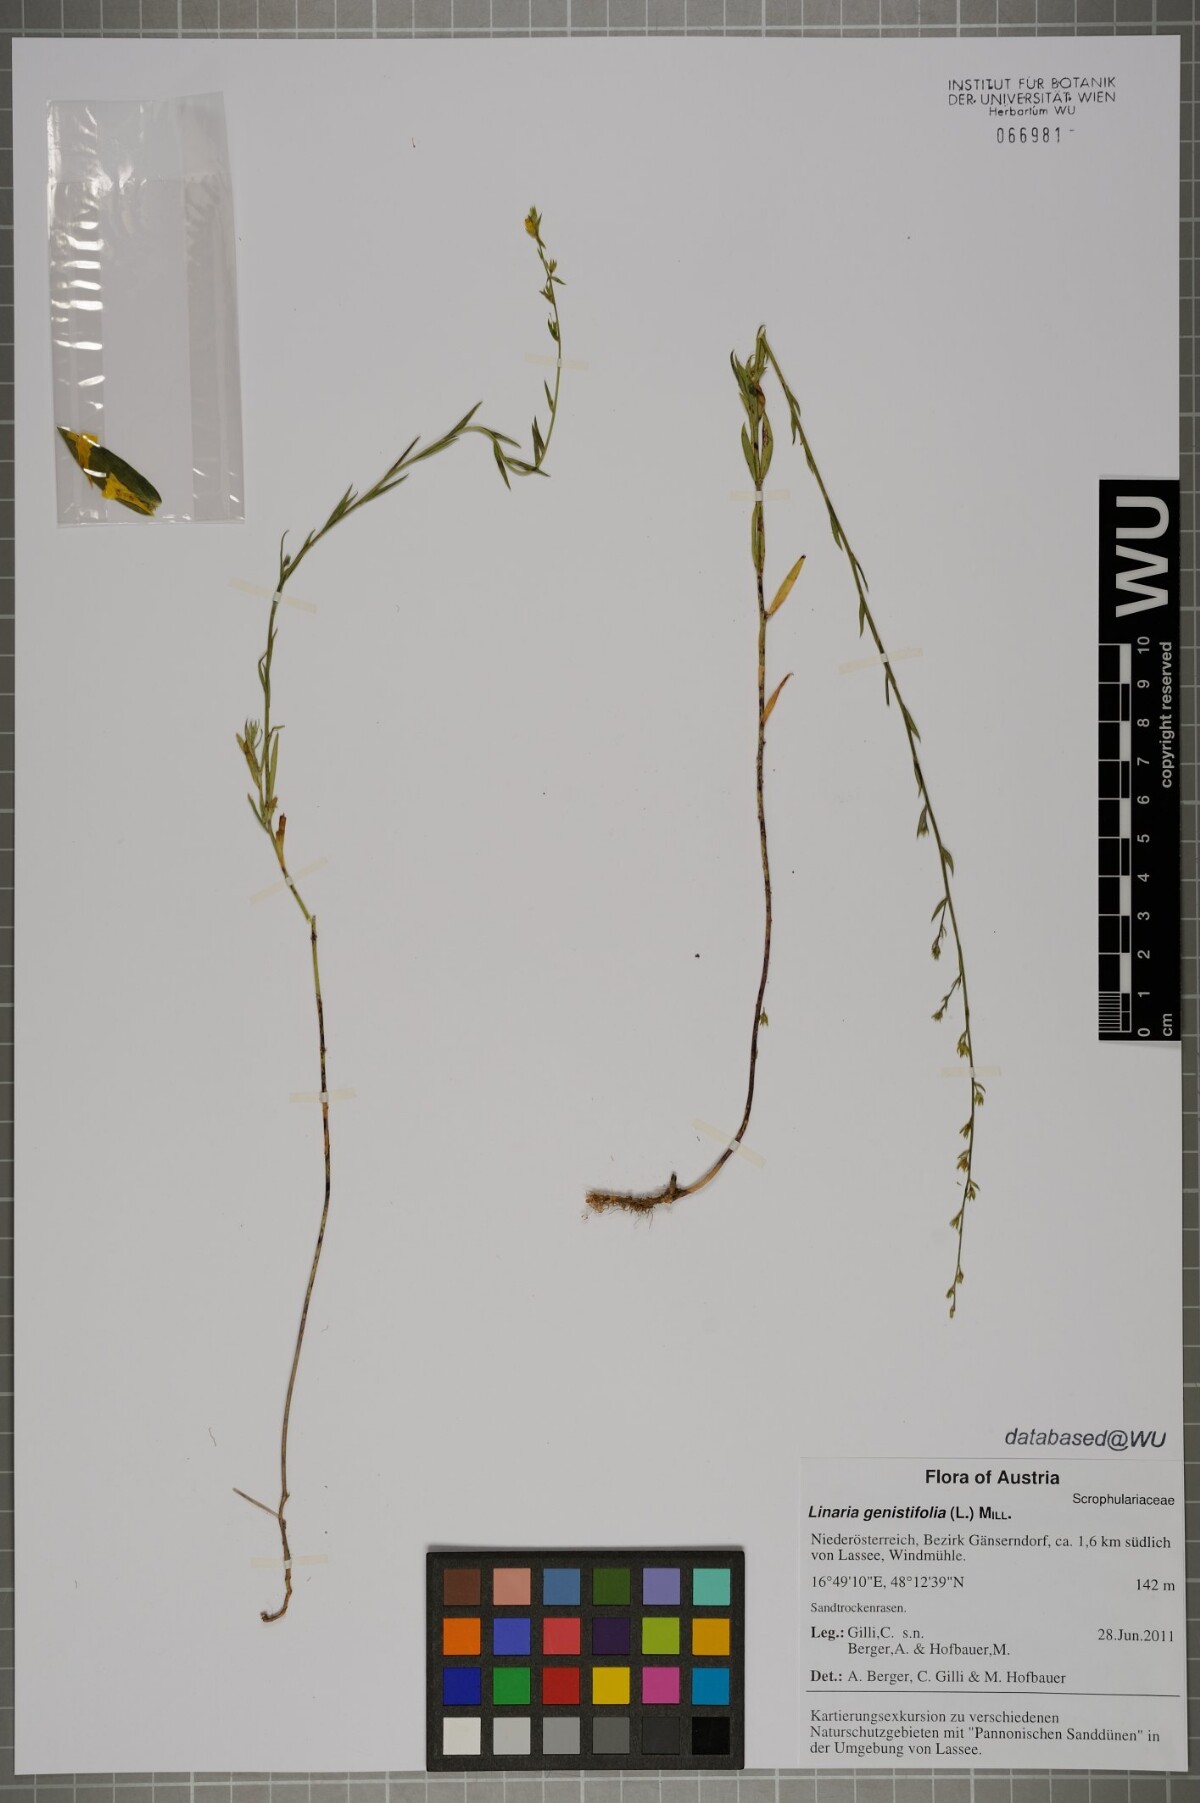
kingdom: Plantae
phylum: Tracheophyta
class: Magnoliopsida
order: Lamiales
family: Plantaginaceae
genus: Linaria
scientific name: Linaria genistifolia
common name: Broomleaf toadflax
